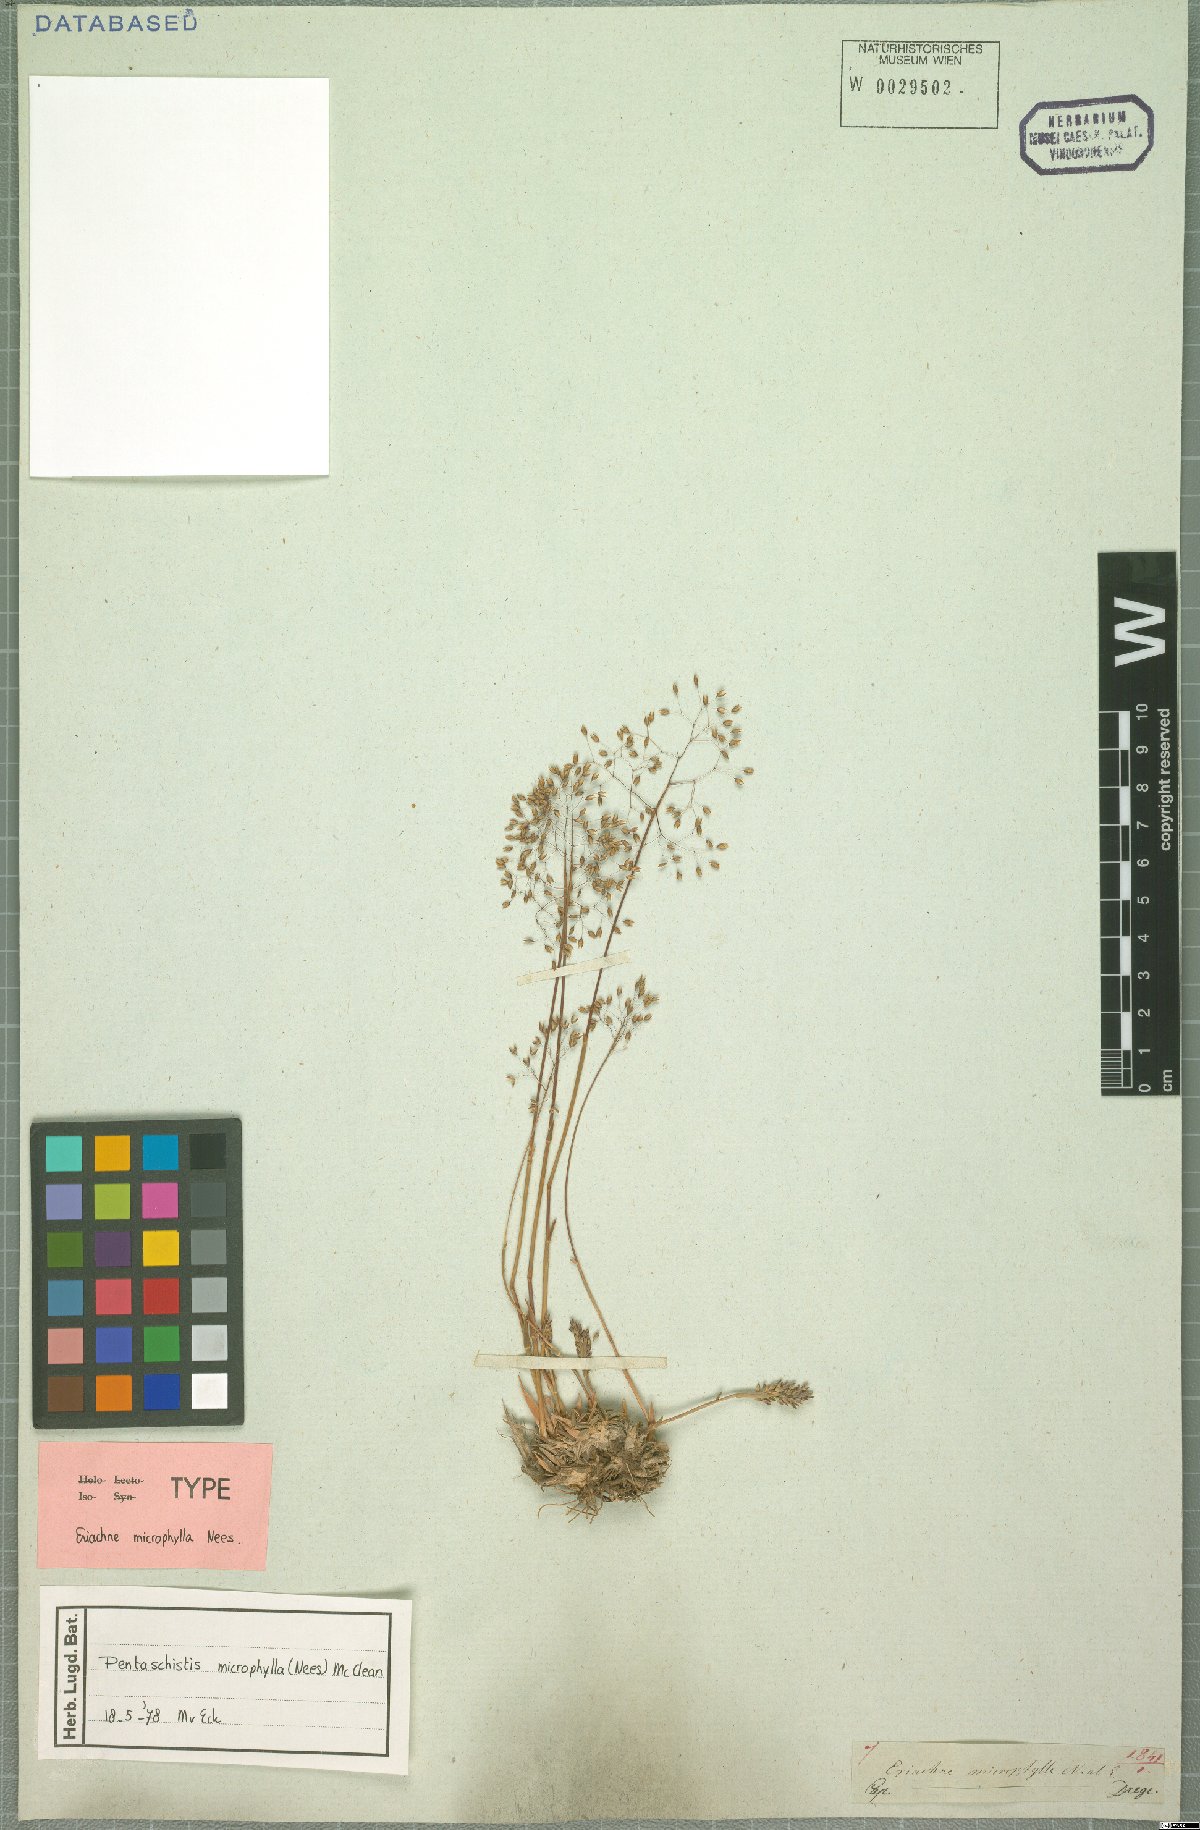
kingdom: Plantae
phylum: Tracheophyta
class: Liliopsida
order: Poales
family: Poaceae
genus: Pentameris
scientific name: Pentameris microphylla
